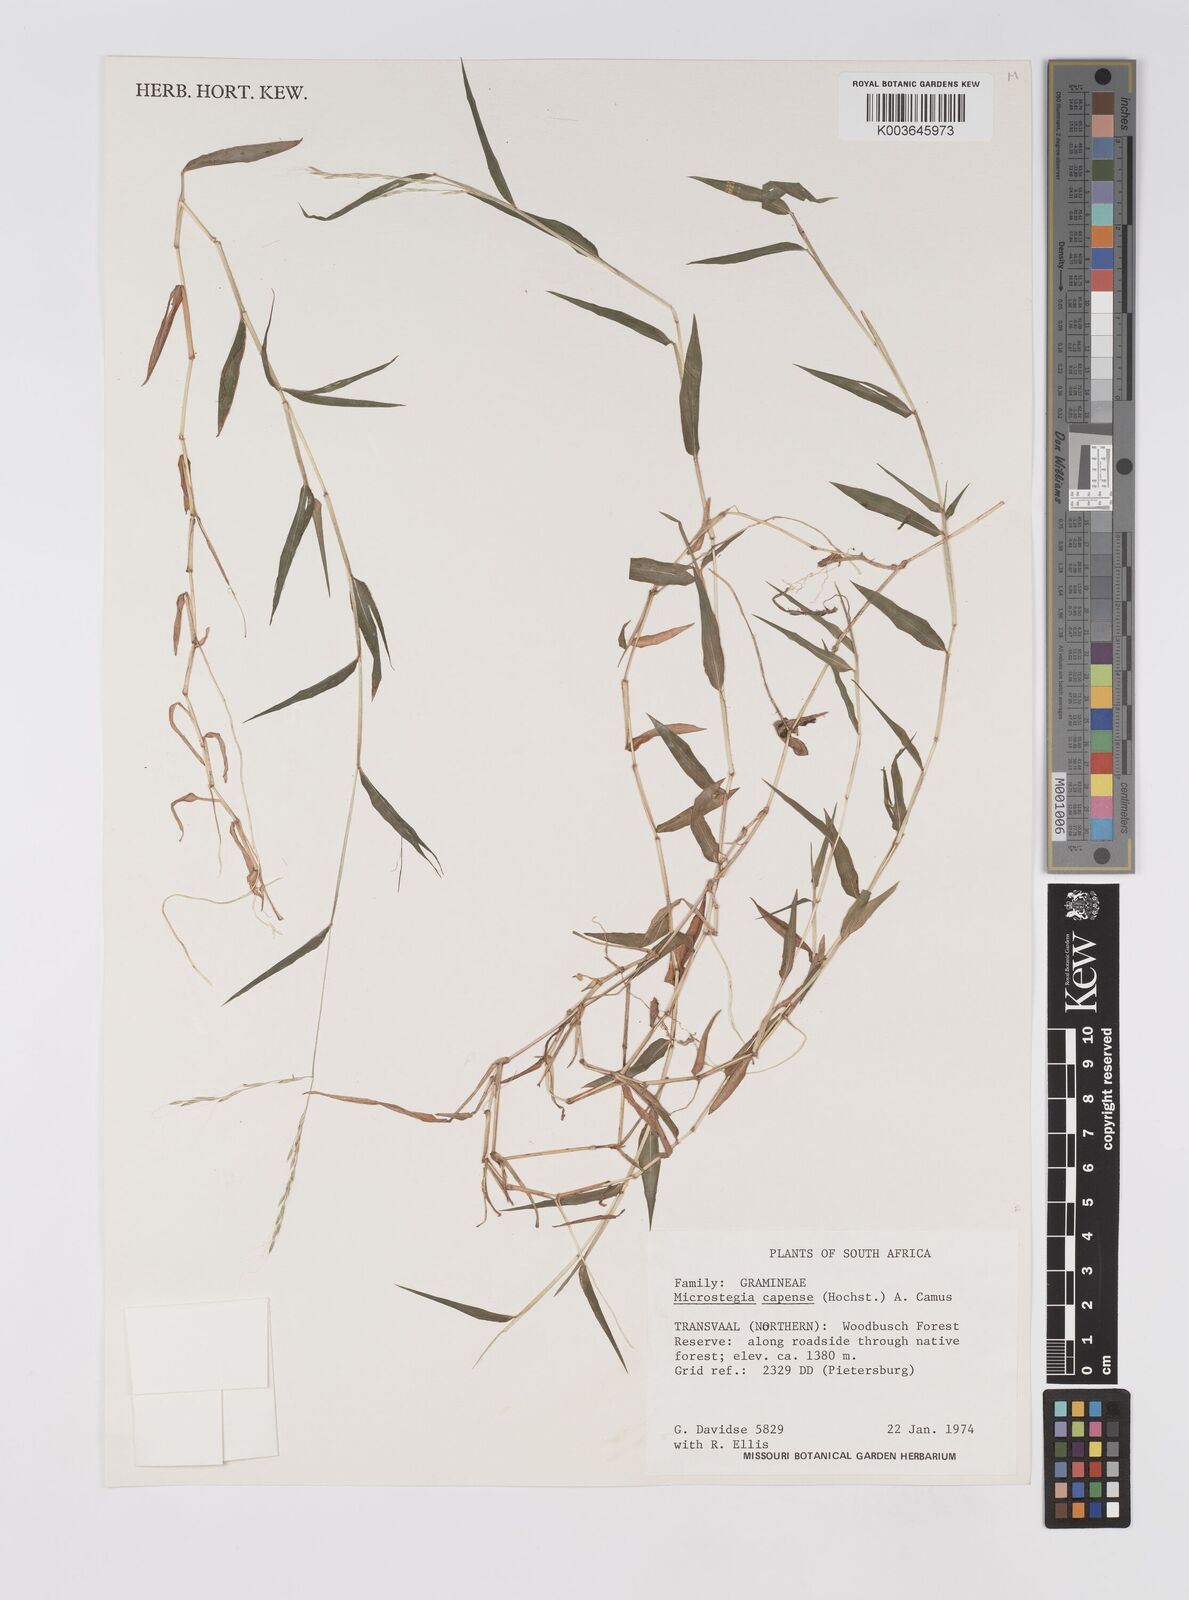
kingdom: Plantae
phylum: Tracheophyta
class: Liliopsida
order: Poales
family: Poaceae
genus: Microstegium
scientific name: Microstegium nudum
